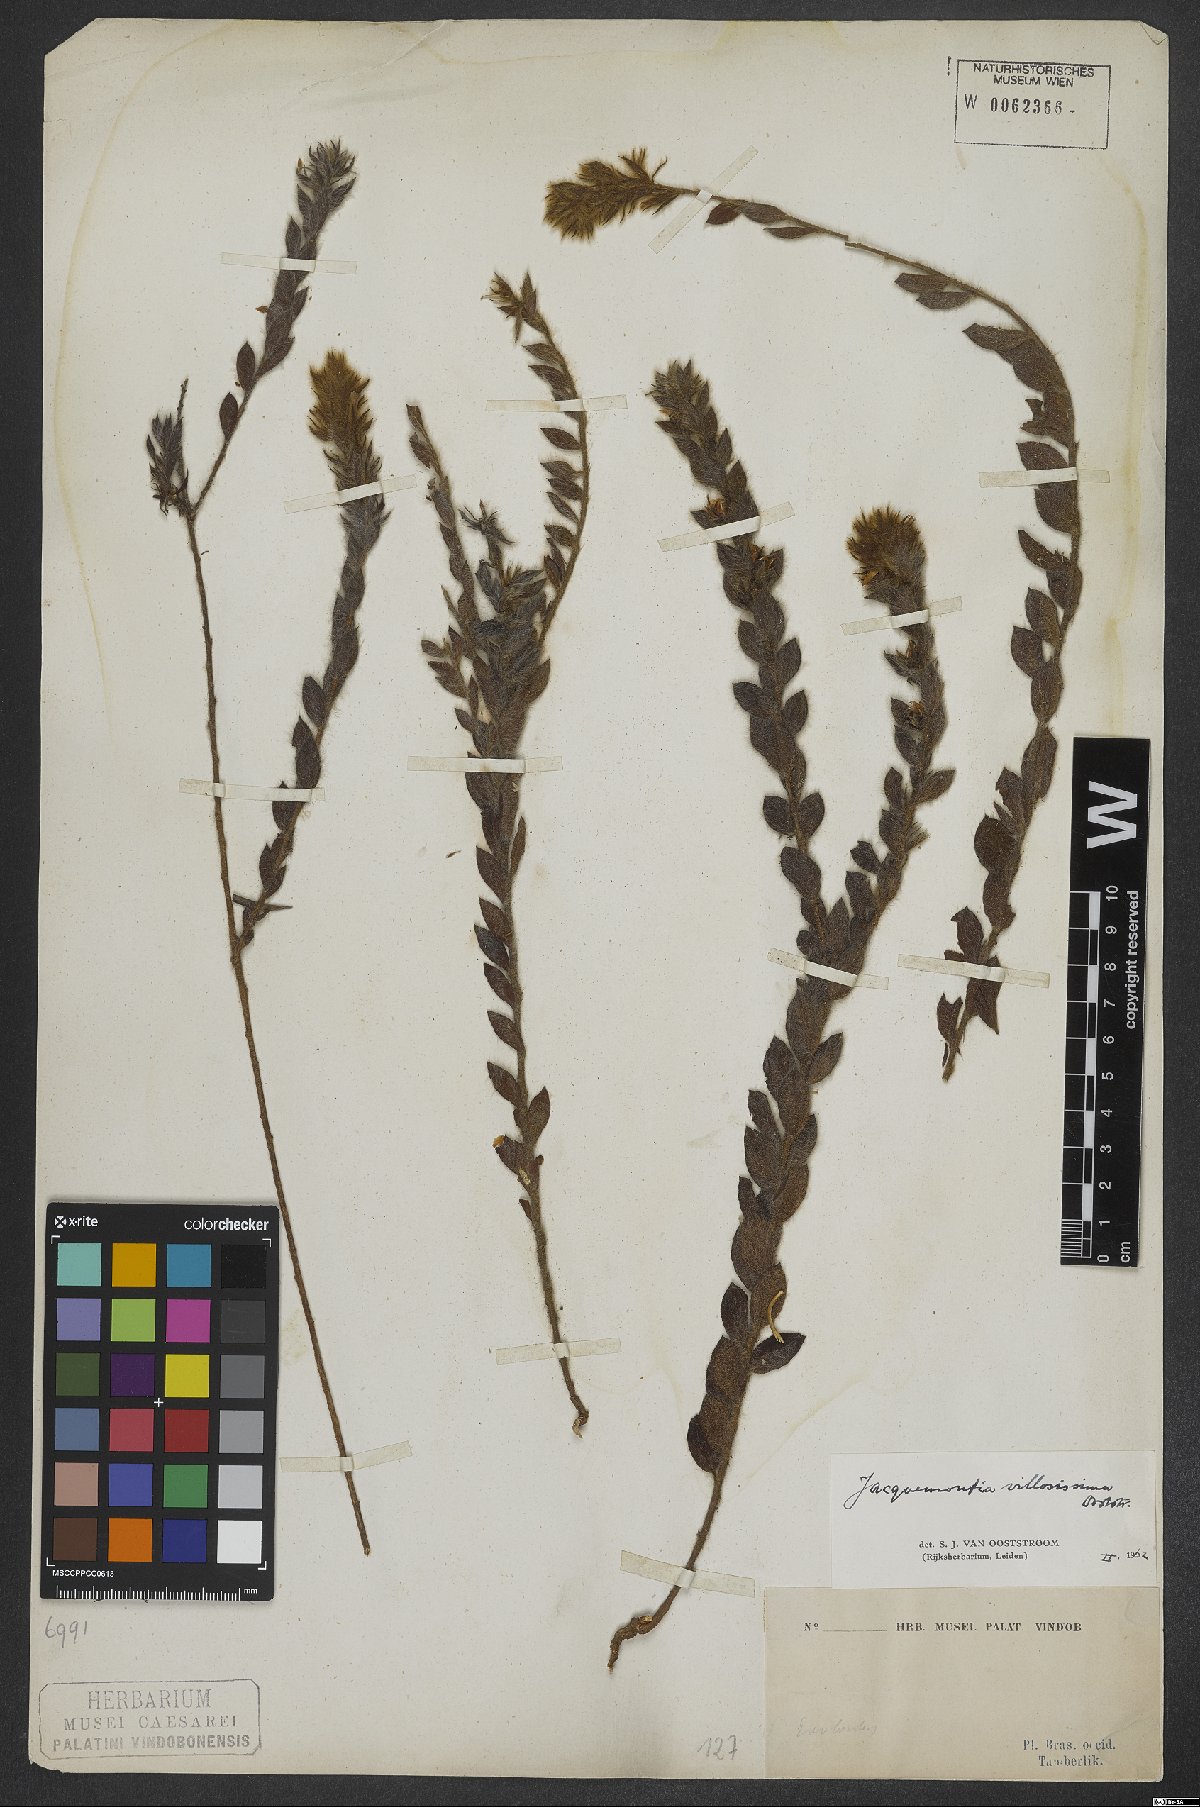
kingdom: Plantae
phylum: Tracheophyta
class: Magnoliopsida
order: Solanales
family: Convolvulaceae
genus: Jacquemontia
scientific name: Jacquemontia villosissima
